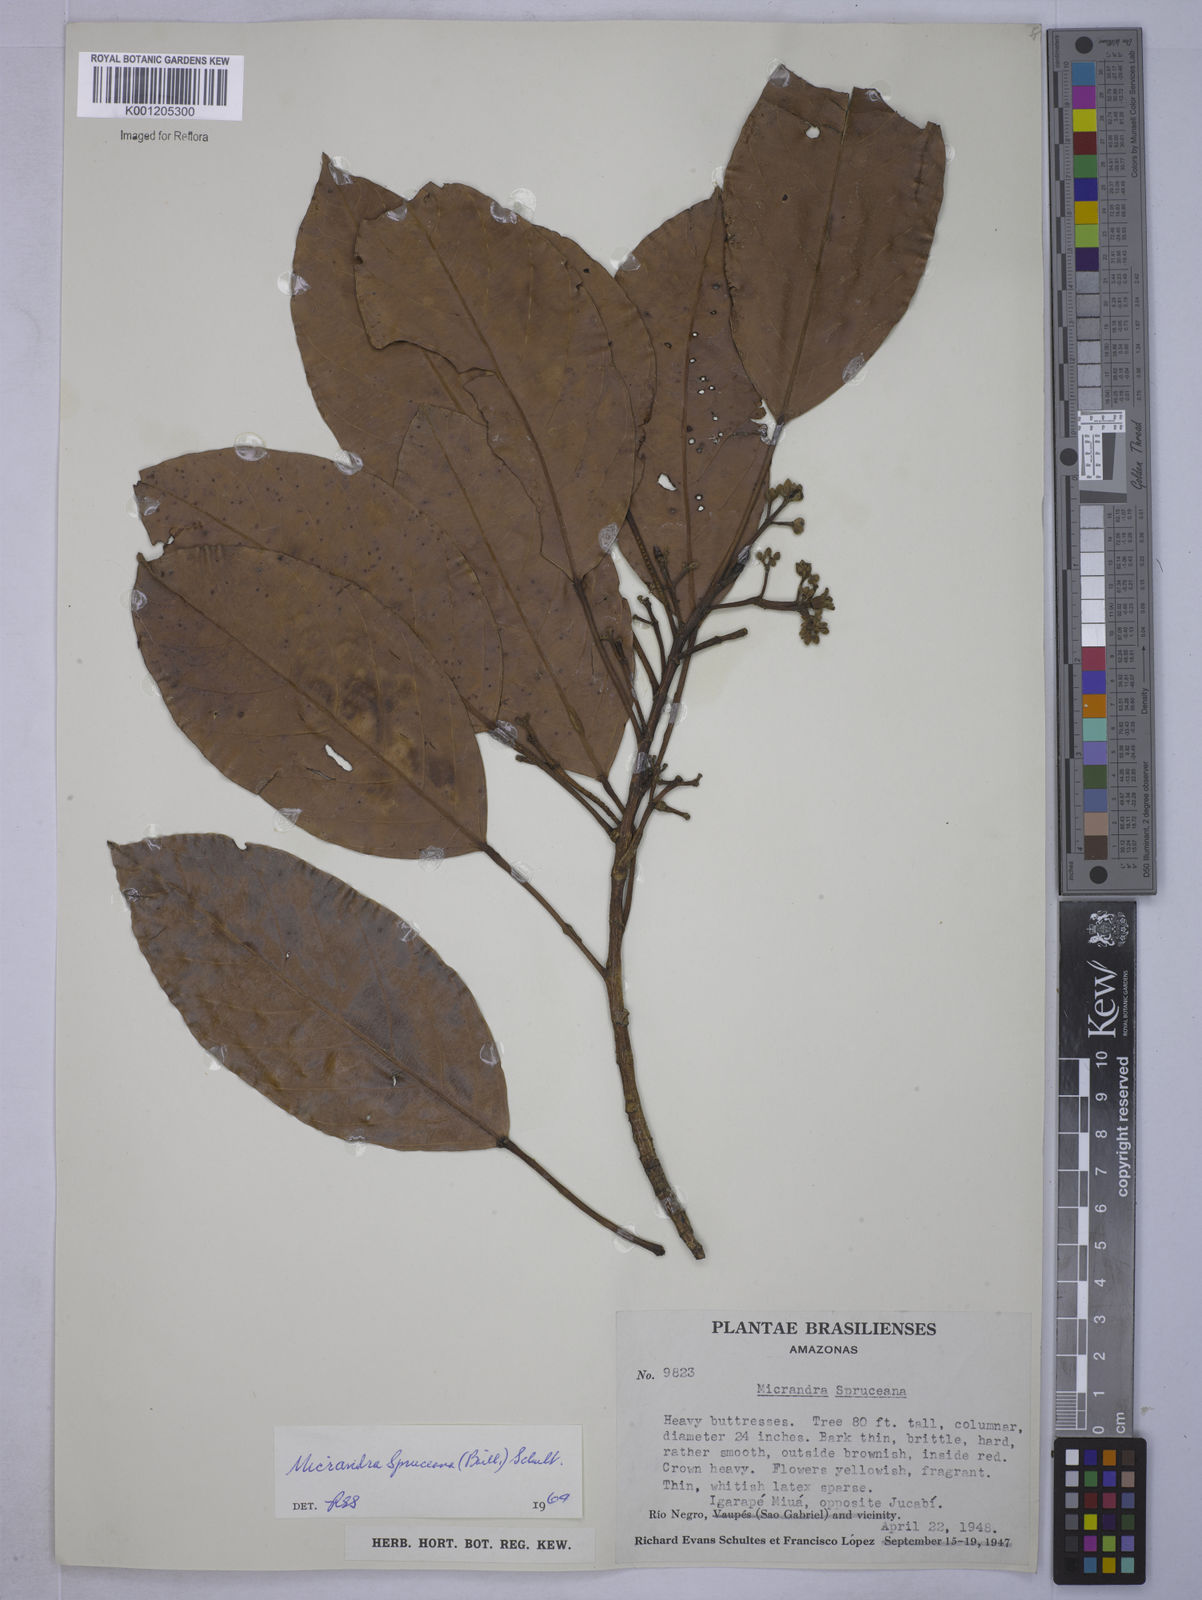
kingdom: Plantae
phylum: Tracheophyta
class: Magnoliopsida
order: Malpighiales
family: Euphorbiaceae
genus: Micrandra
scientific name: Micrandra spruceana
